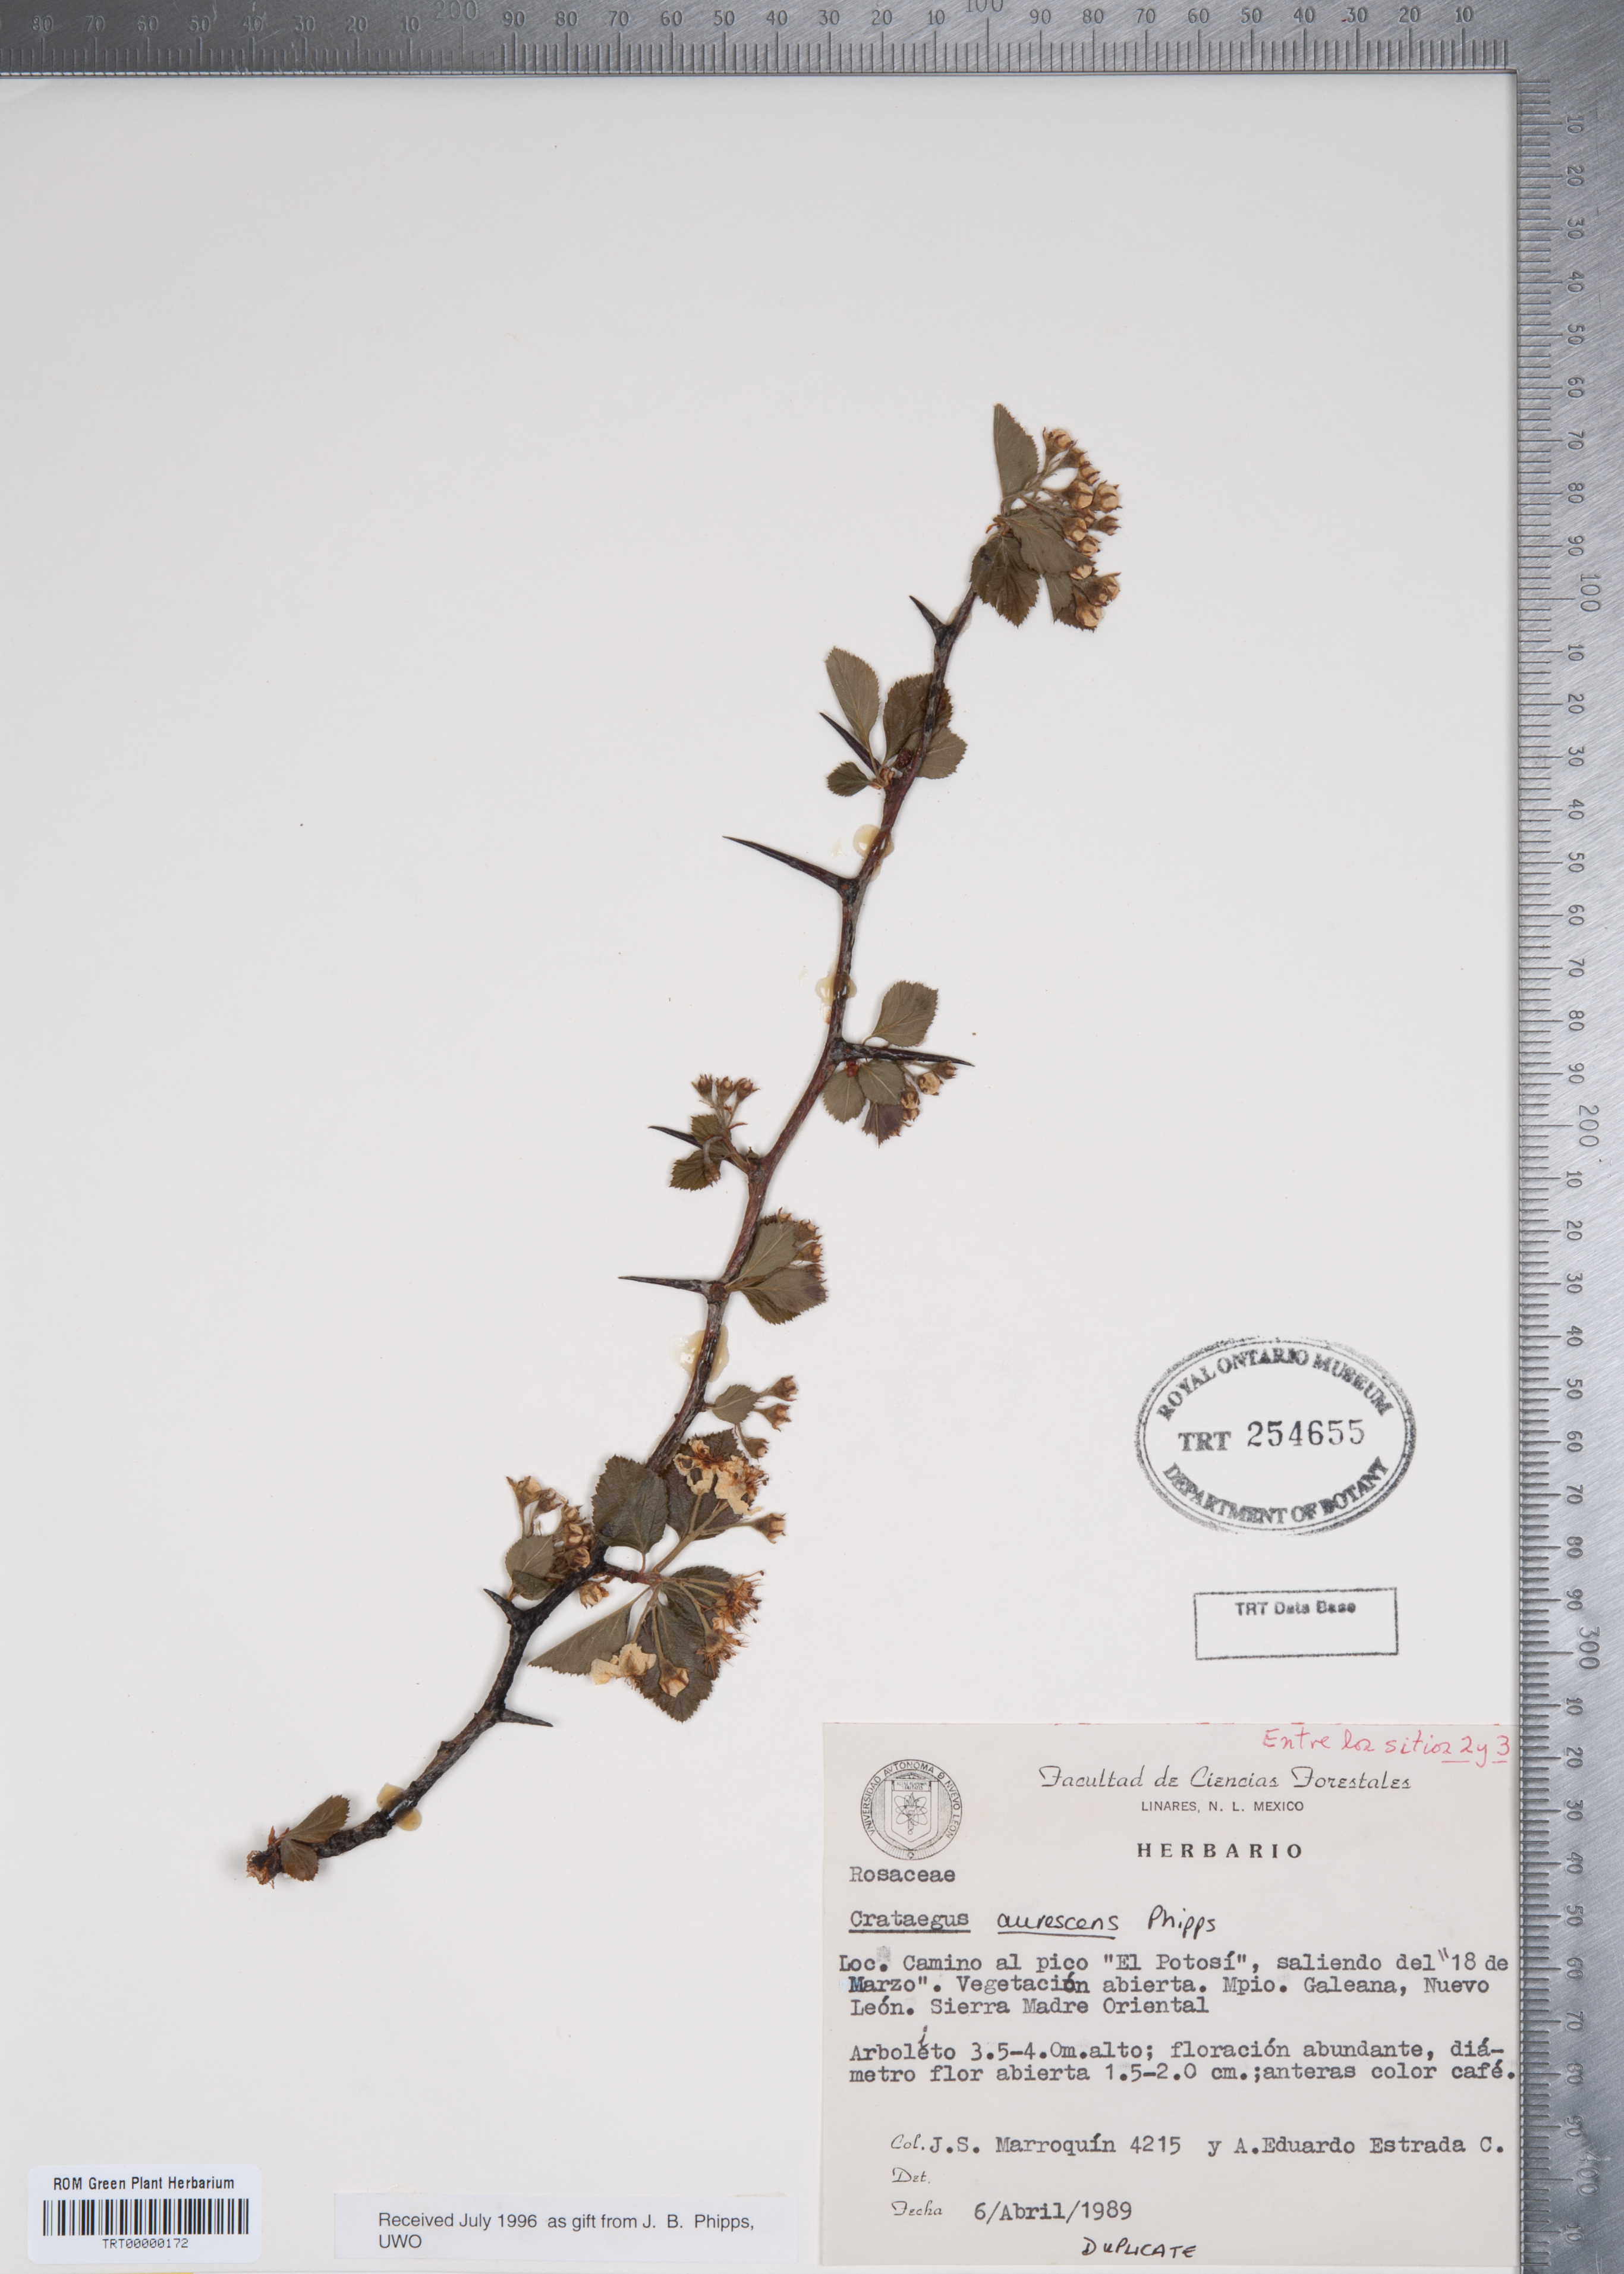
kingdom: Plantae
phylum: Tracheophyta
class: Magnoliopsida
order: Rosales
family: Rosaceae
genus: Crataegus
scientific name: Crataegus aurescens
